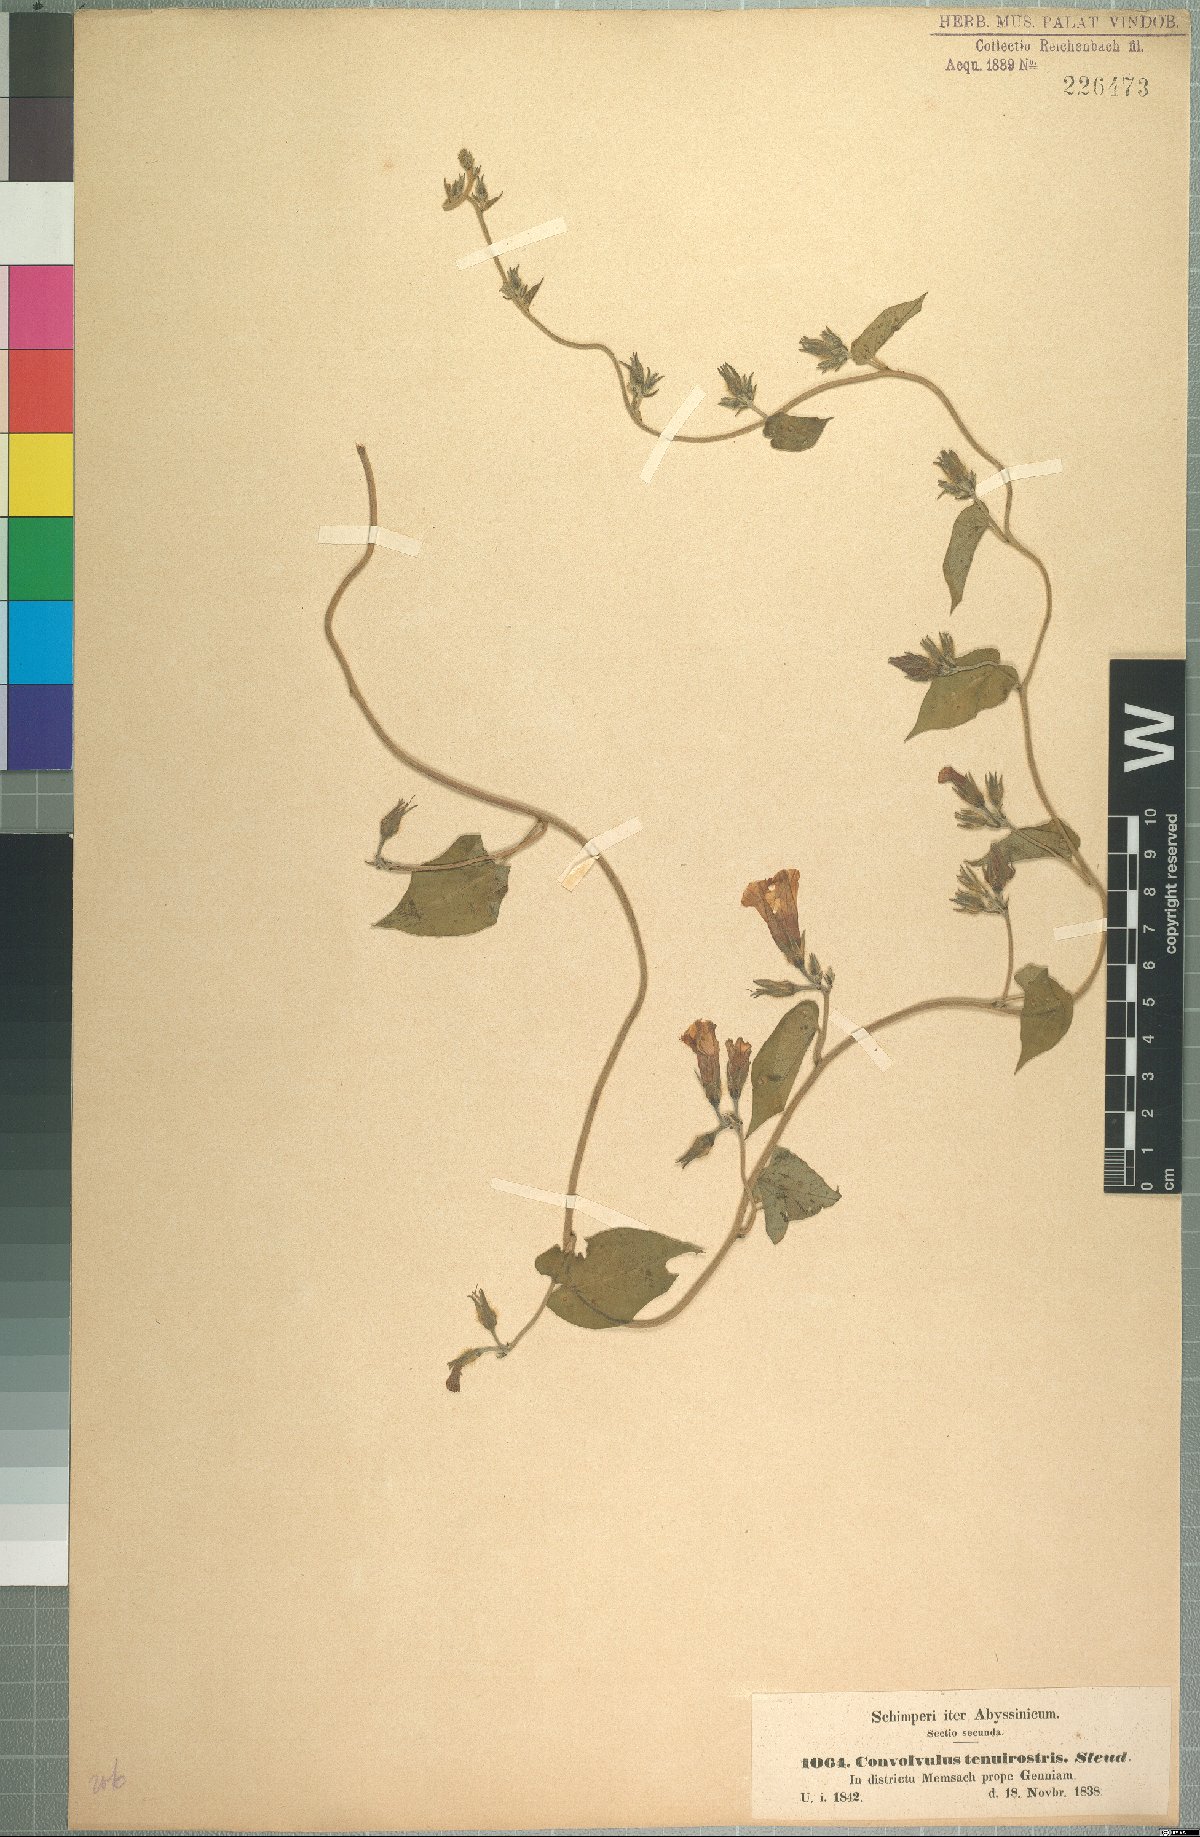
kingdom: Plantae
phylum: Tracheophyta
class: Magnoliopsida
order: Solanales
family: Convolvulaceae
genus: Ipomoea
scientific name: Ipomoea tenuirostris
